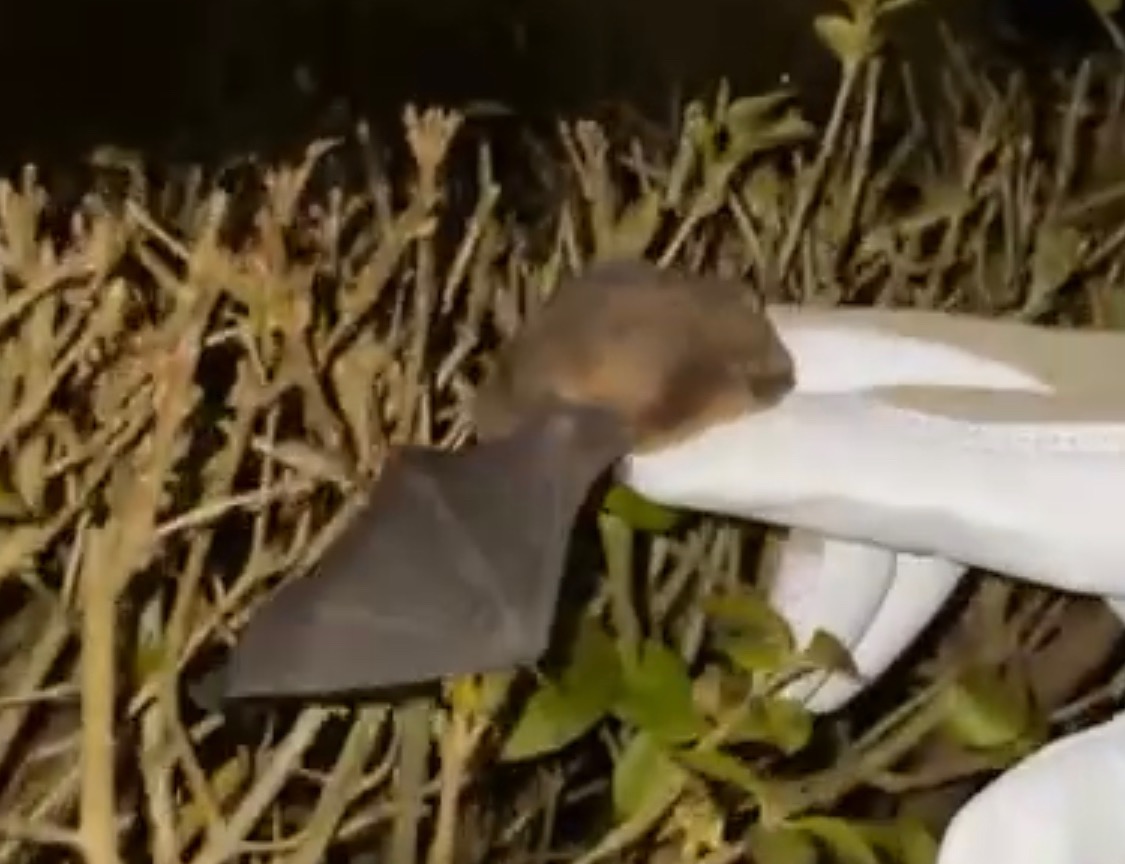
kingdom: Animalia
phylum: Chordata
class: Mammalia
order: Chiroptera
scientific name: Chiroptera
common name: Flagermus
